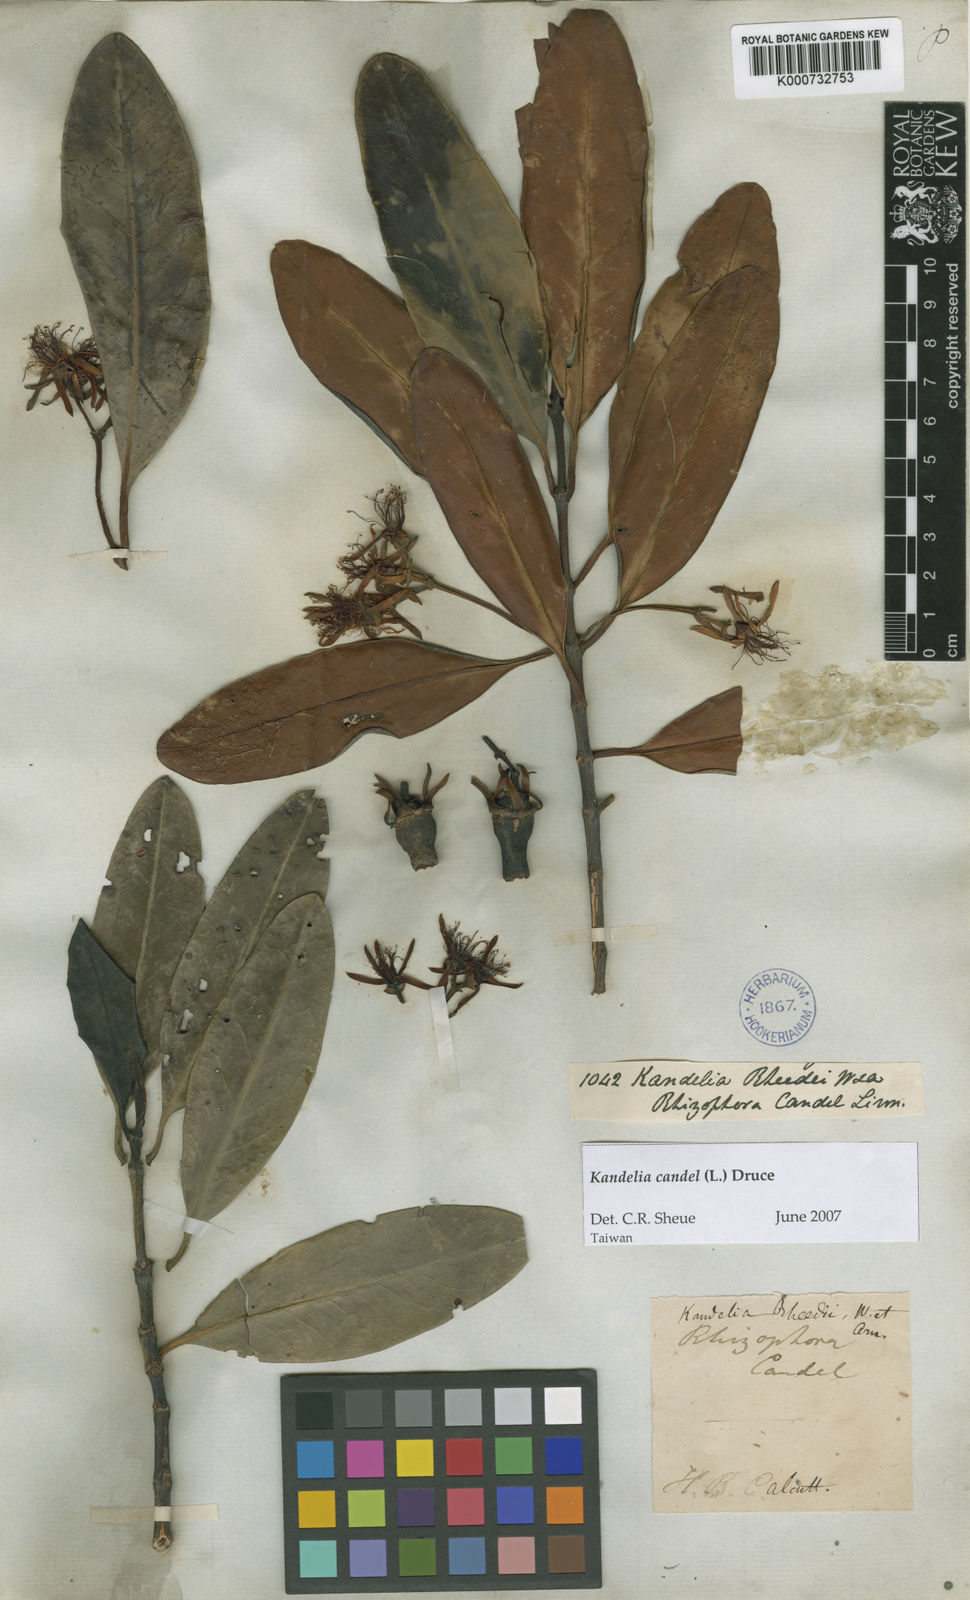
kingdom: Plantae
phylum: Tracheophyta
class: Magnoliopsida
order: Malpighiales
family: Rhizophoraceae
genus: Kandelia
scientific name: Kandelia candel
